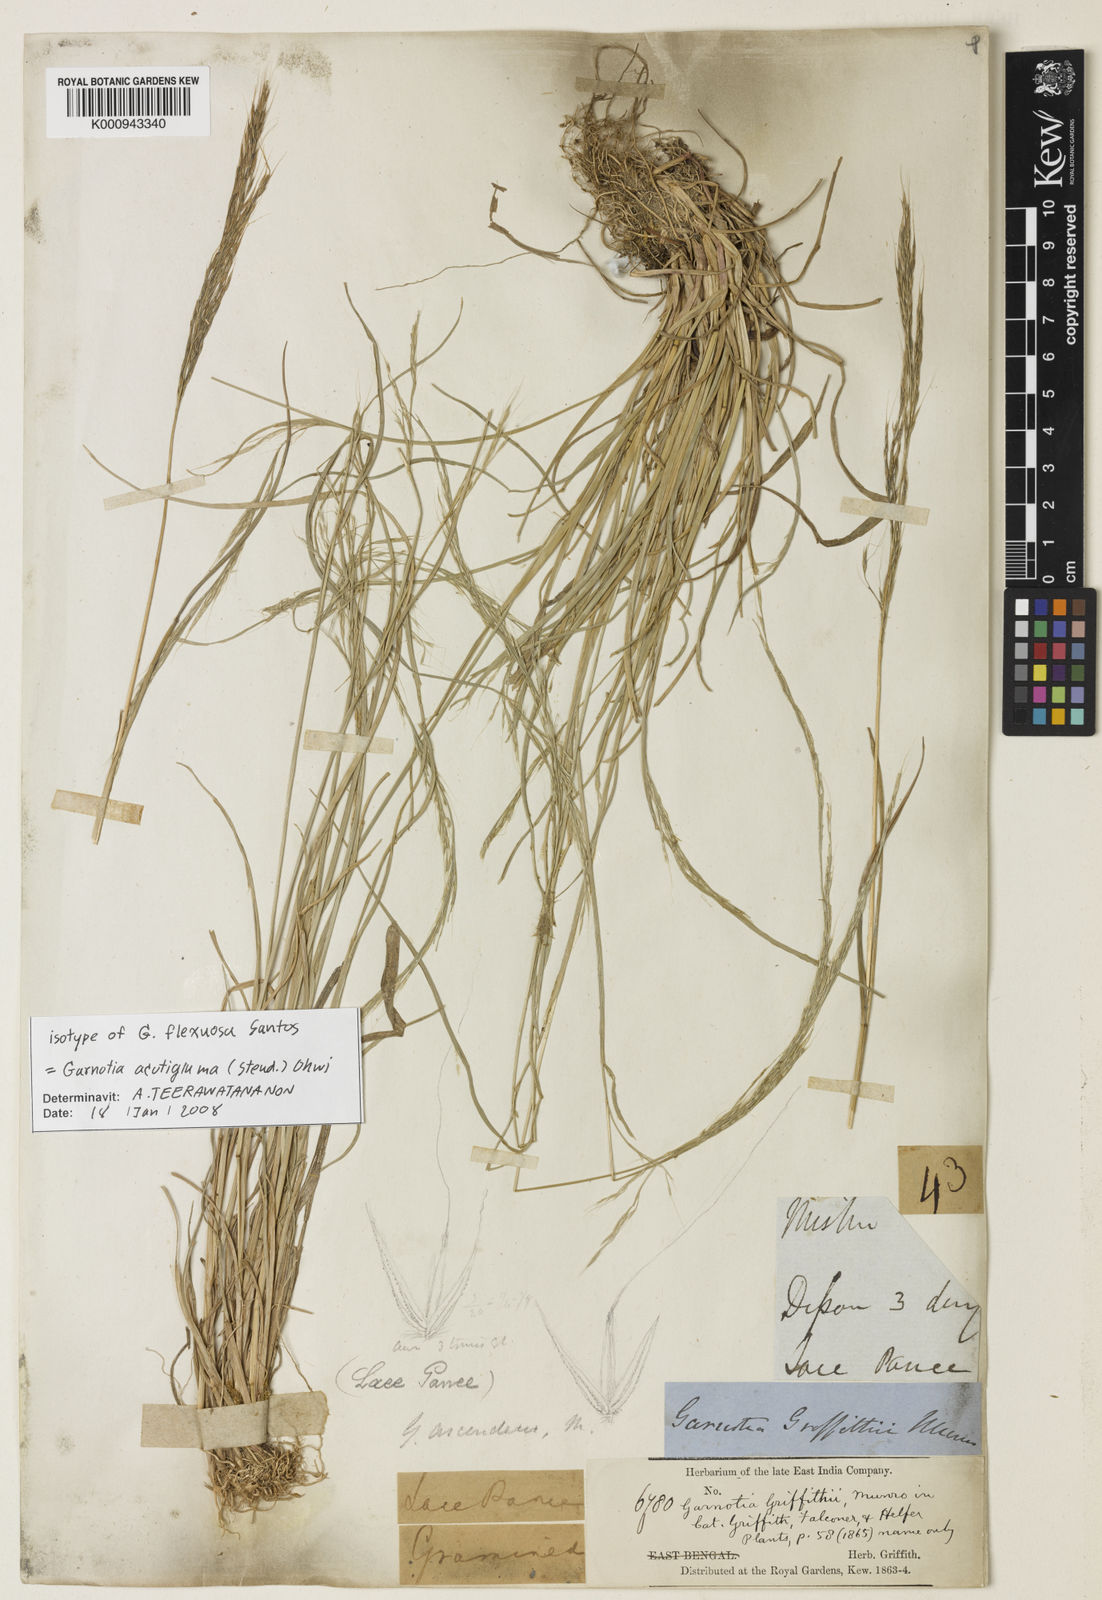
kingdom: Plantae
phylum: Tracheophyta
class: Liliopsida
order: Poales
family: Poaceae
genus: Garnotia
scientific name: Garnotia stricta
